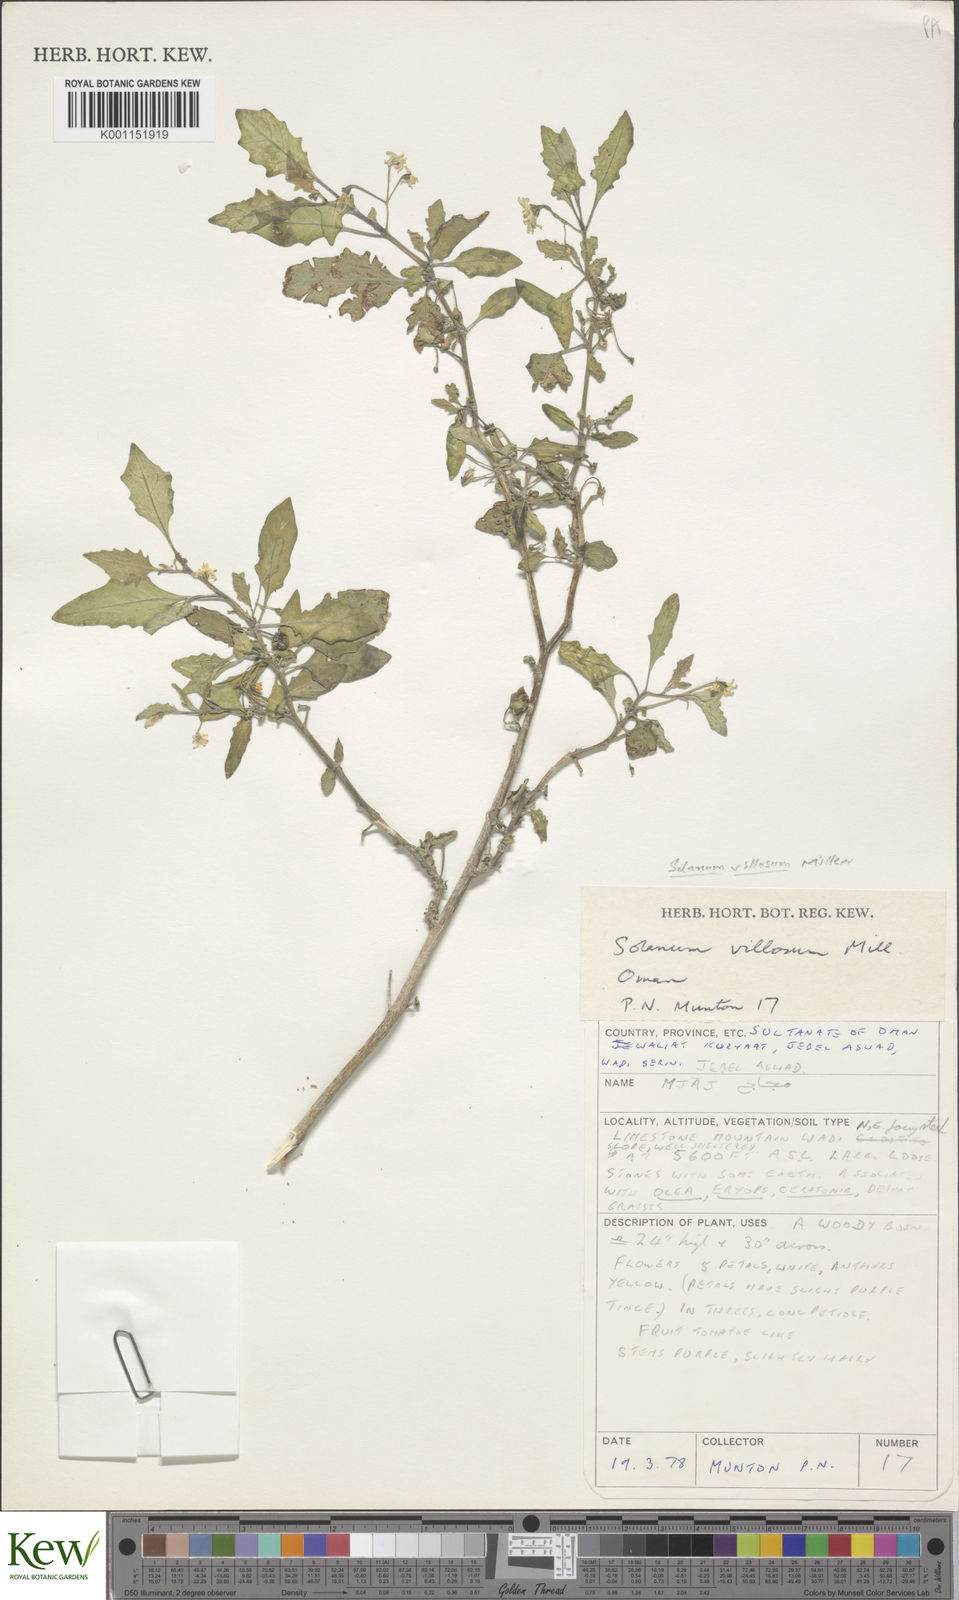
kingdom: Plantae
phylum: Tracheophyta
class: Magnoliopsida
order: Solanales
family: Solanaceae
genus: Solanum
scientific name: Solanum villosum
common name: Red nightshade
